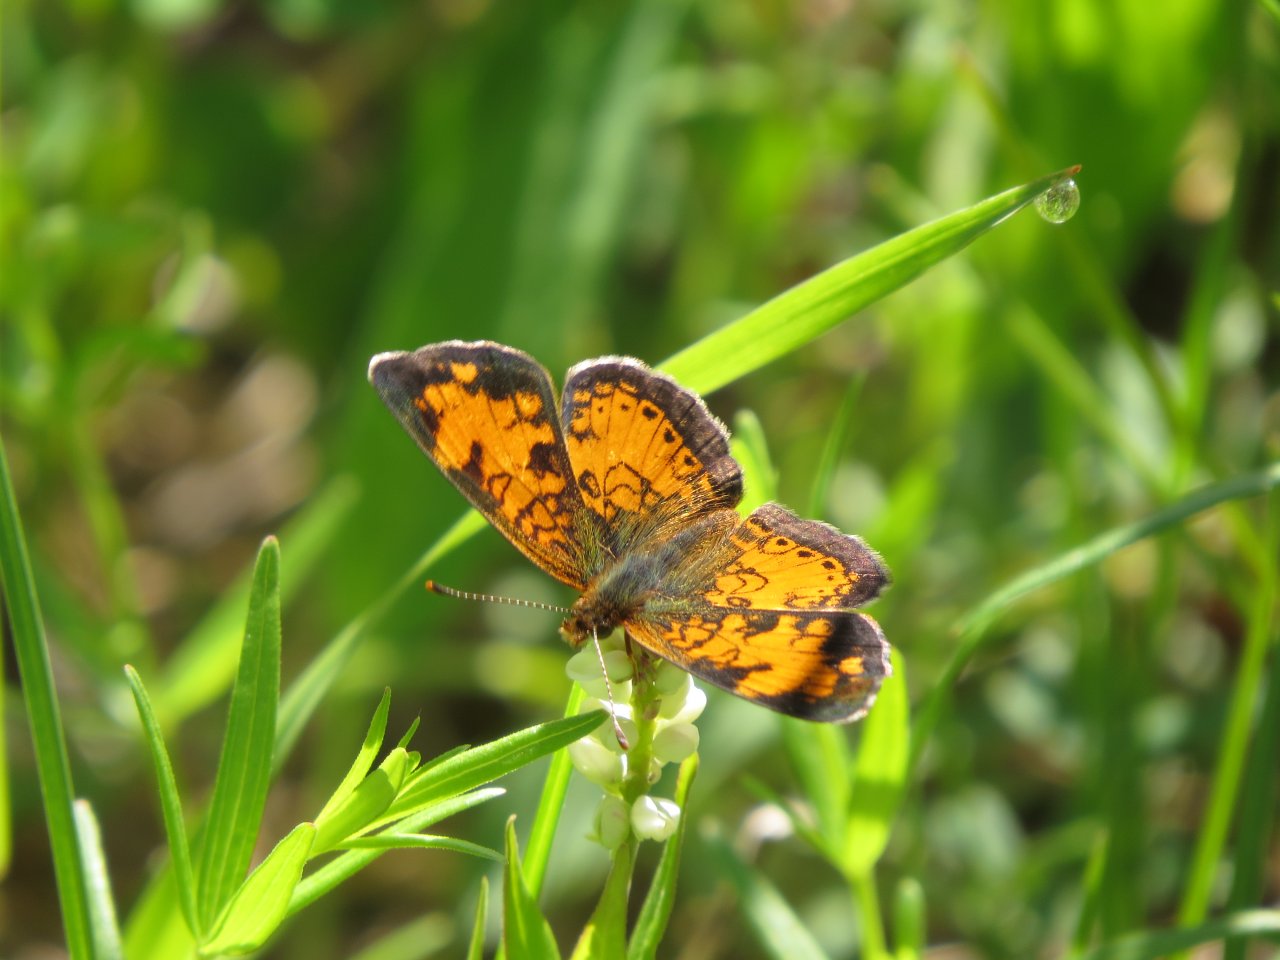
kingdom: Animalia
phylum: Arthropoda
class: Insecta
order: Lepidoptera
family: Nymphalidae
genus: Phyciodes
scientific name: Phyciodes tharos
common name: Northern Crescent
